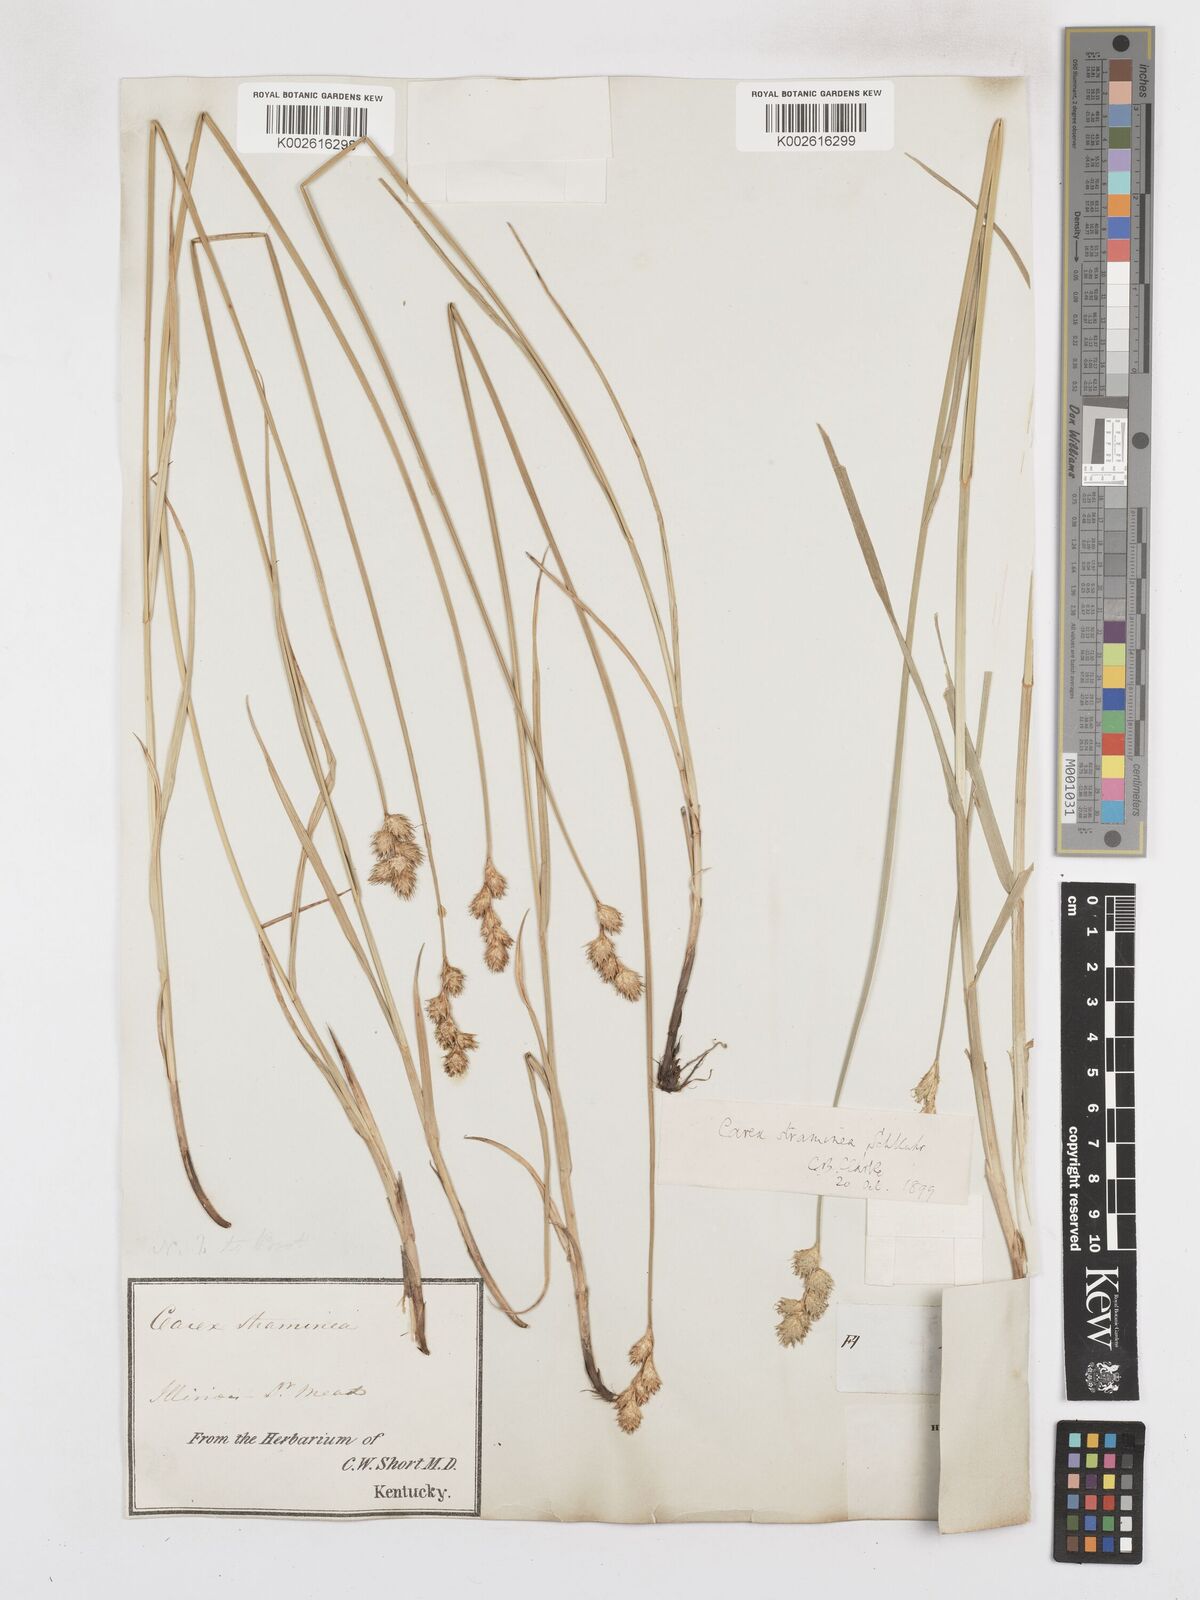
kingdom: Plantae
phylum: Tracheophyta
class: Liliopsida
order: Poales
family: Cyperaceae
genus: Carex
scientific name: Carex albolutescens
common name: Freenish white sedge
